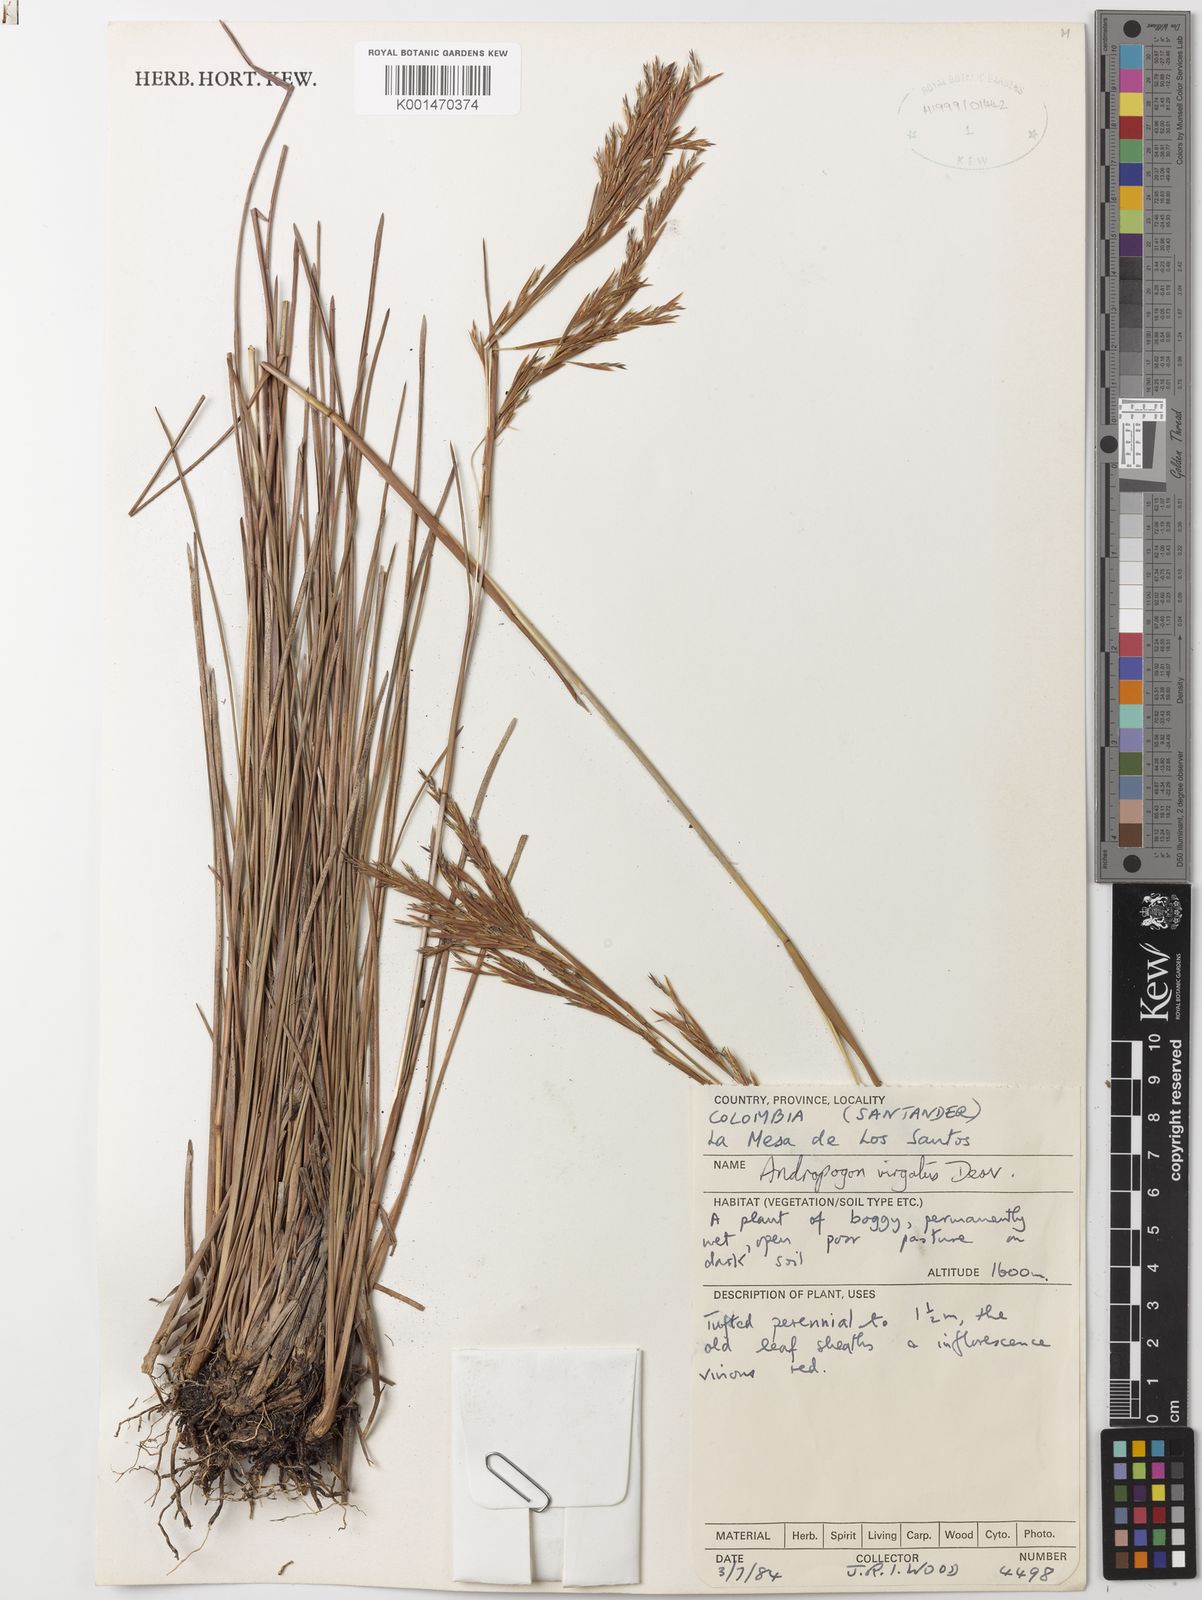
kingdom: Plantae
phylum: Tracheophyta
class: Liliopsida
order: Poales
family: Poaceae
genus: Andropogon
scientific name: Andropogon virgatus
